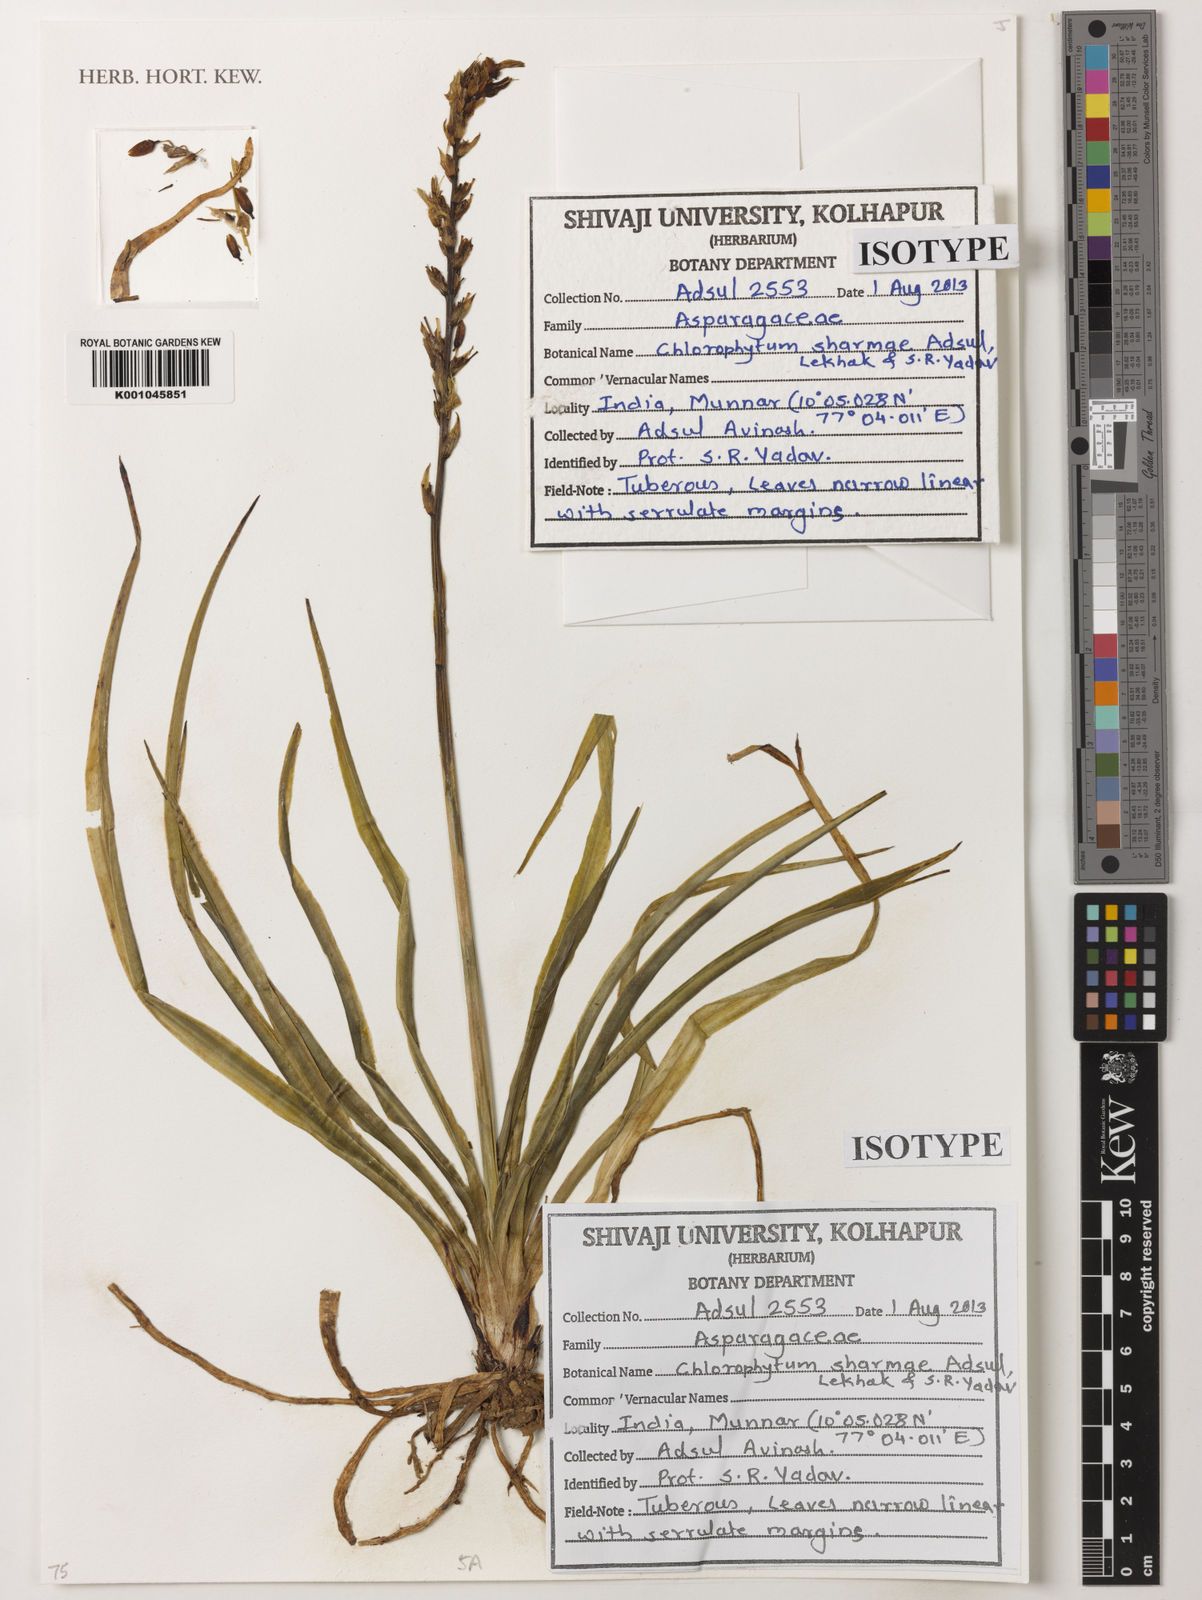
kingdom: Plantae
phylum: Tracheophyta
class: Liliopsida
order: Asparagales
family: Asparagaceae
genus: Chlorophytum
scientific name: Chlorophytum sharmae
